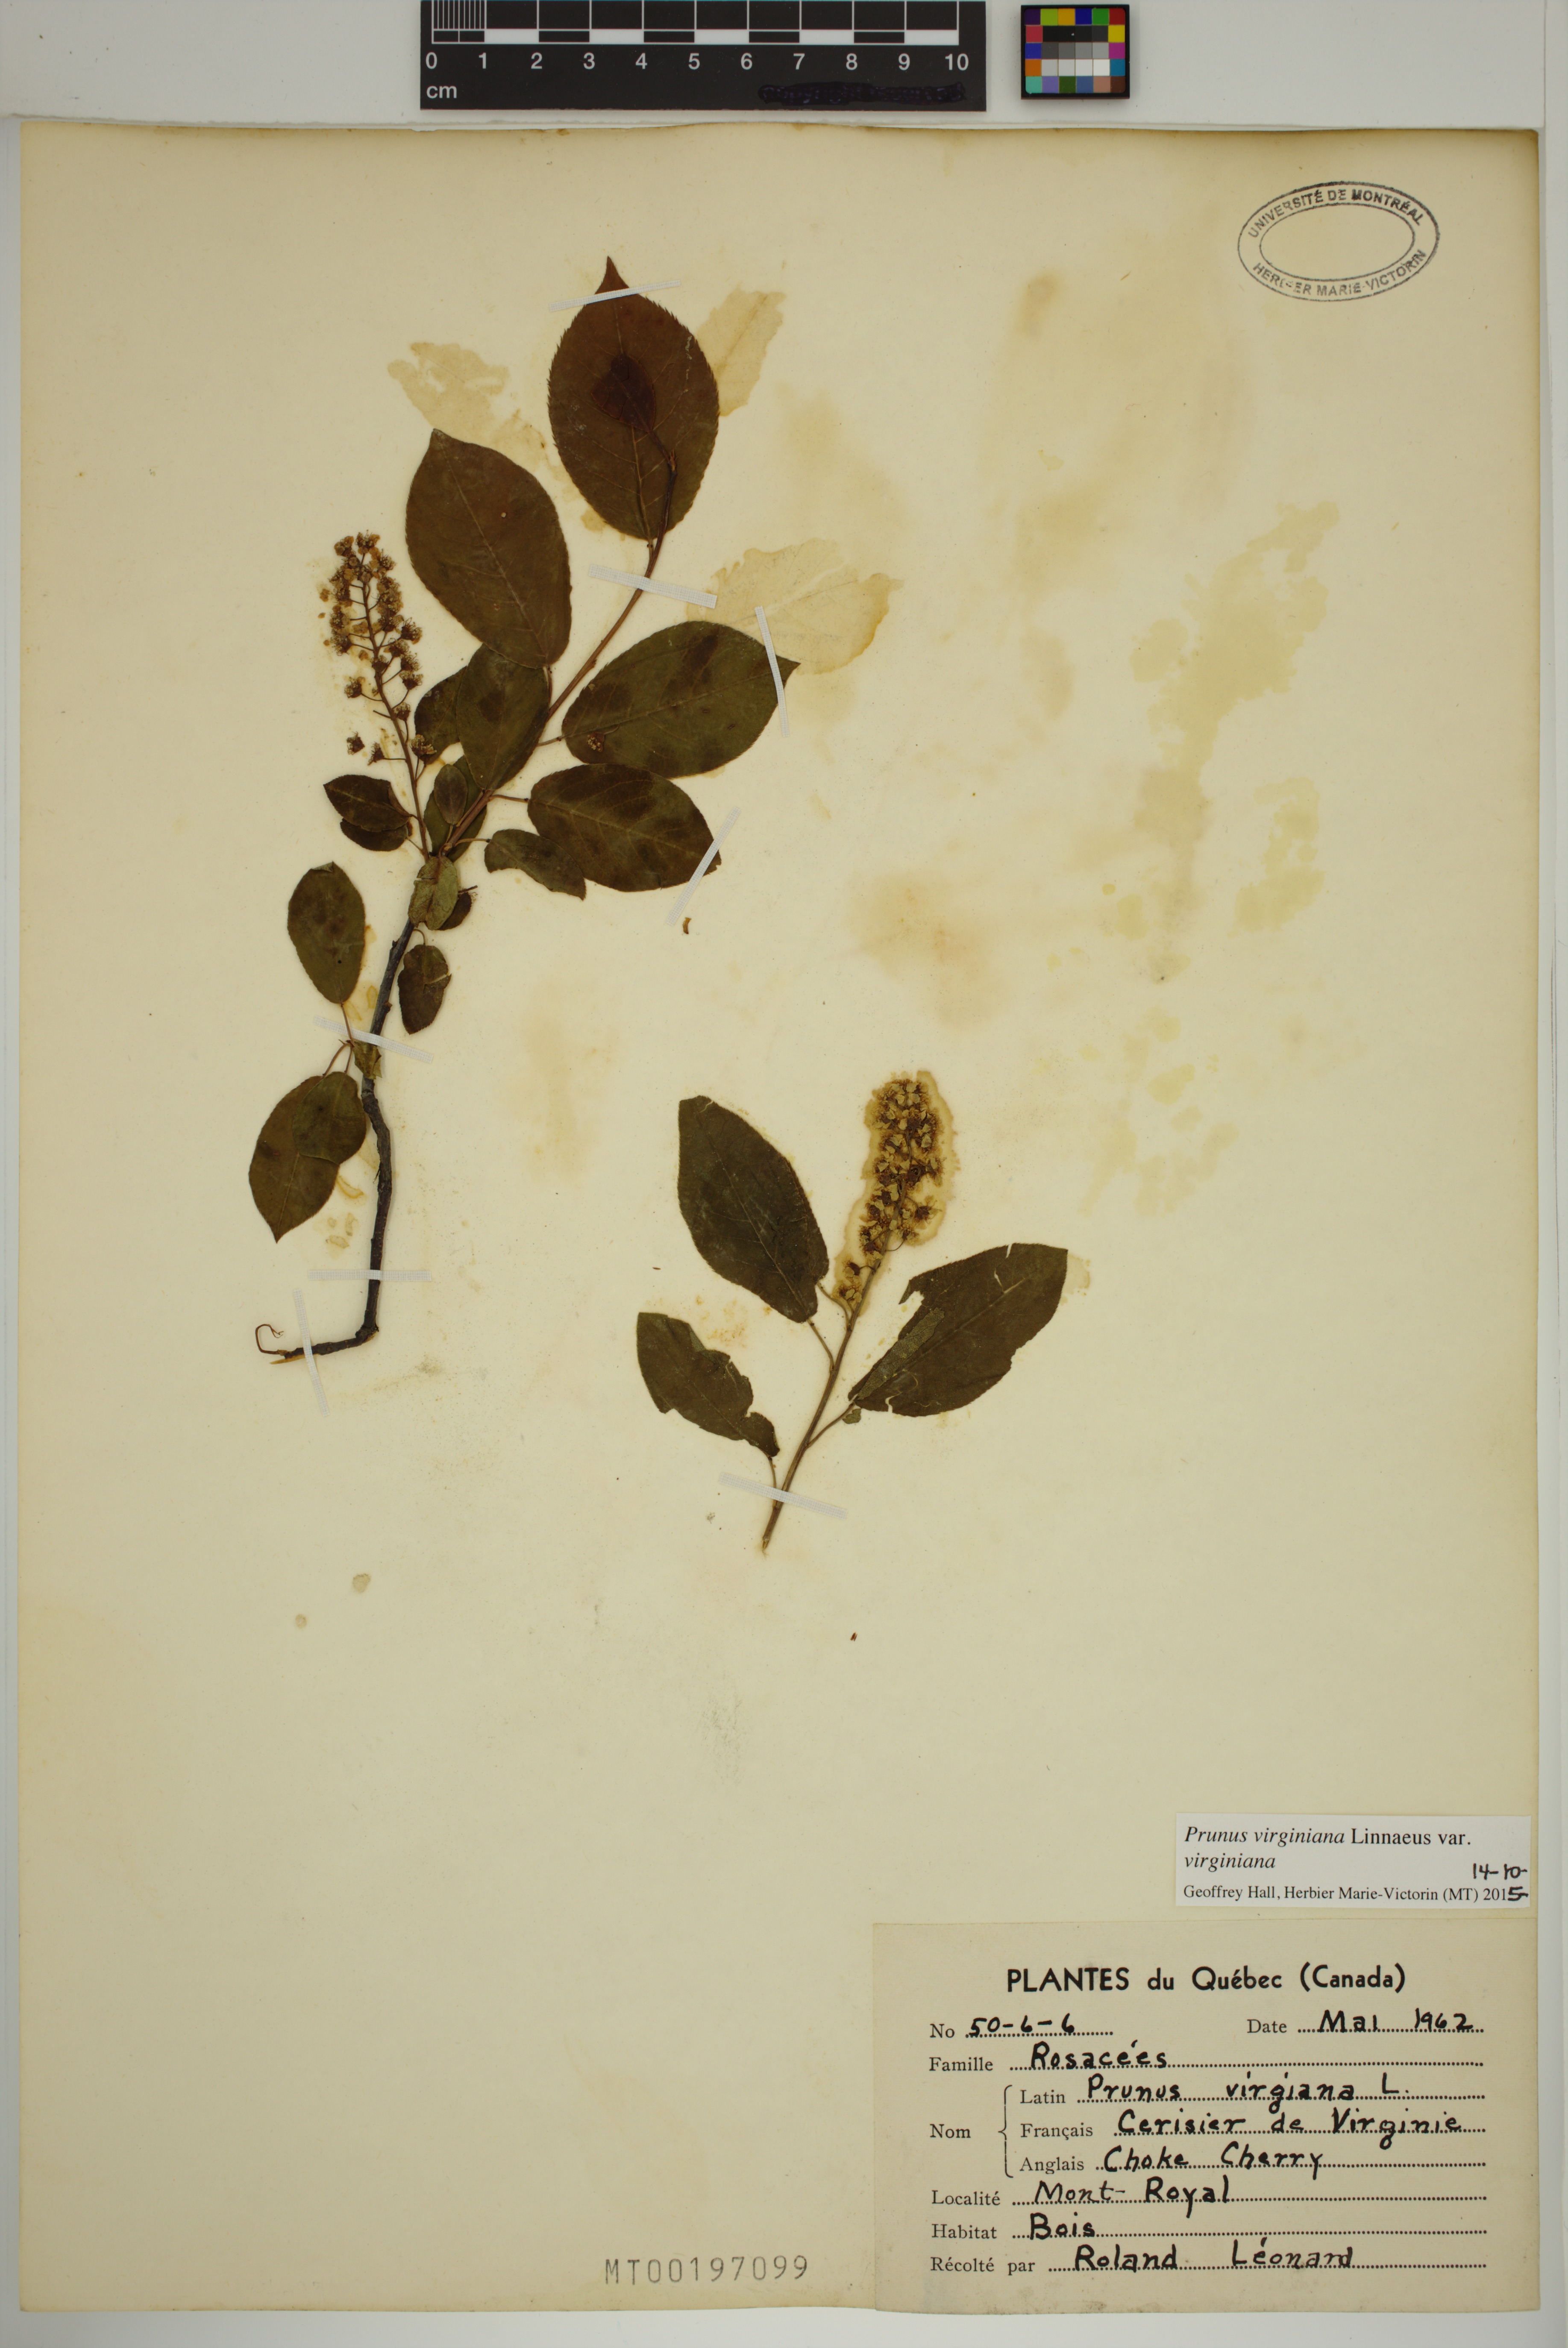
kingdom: Plantae
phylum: Tracheophyta
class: Magnoliopsida
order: Rosales
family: Rosaceae
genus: Prunus
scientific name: Prunus virginiana
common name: Chokecherry
